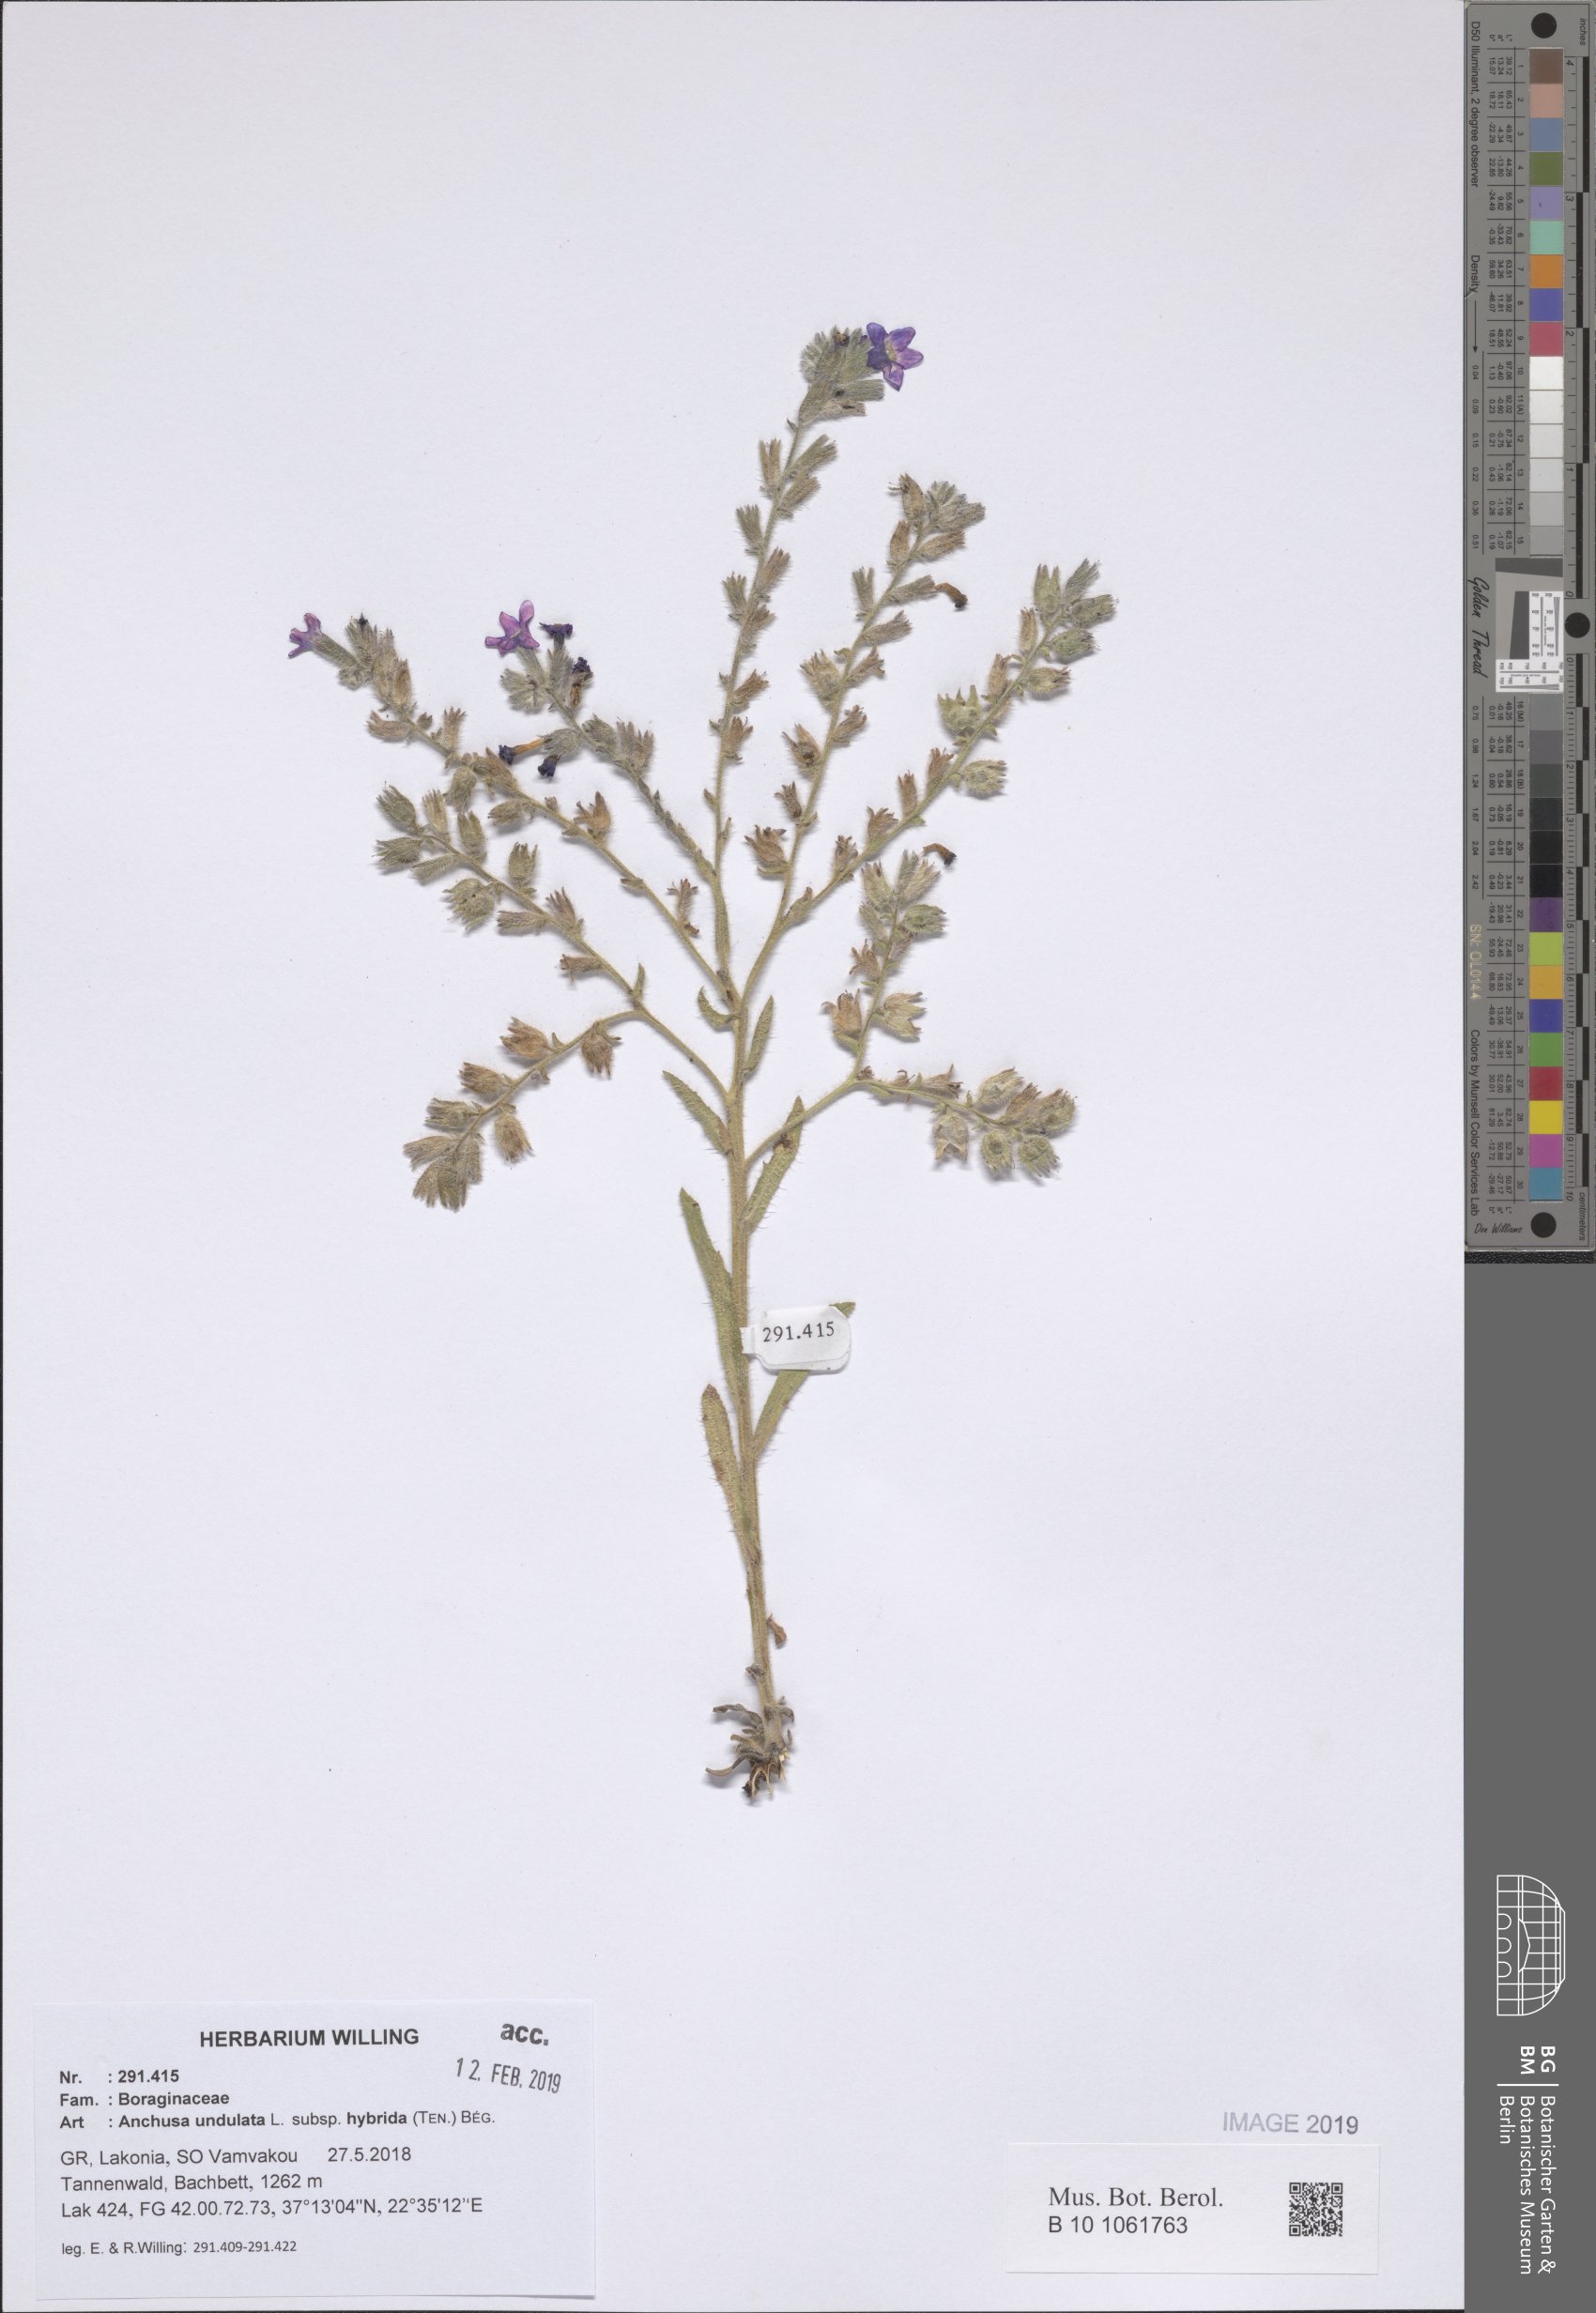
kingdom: Plantae
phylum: Tracheophyta
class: Magnoliopsida
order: Boraginales
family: Boraginaceae
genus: Anchusa
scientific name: Anchusa undulata
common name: Undulate alkanet
